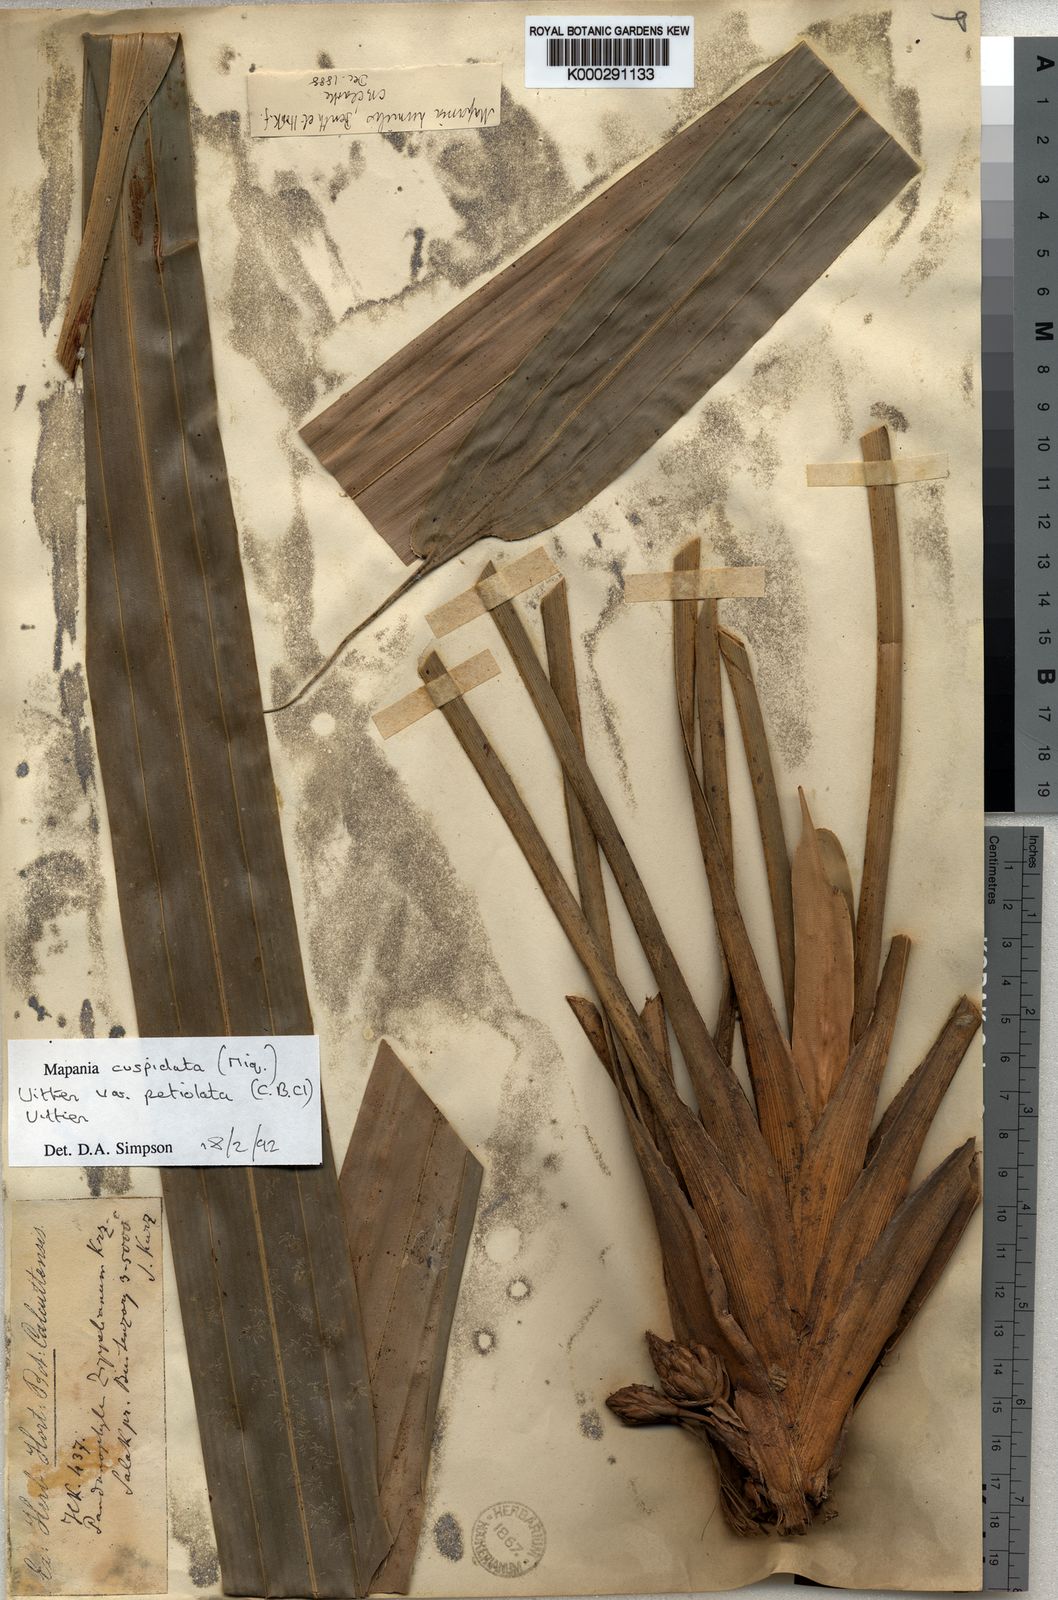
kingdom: Plantae
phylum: Tracheophyta
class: Liliopsida
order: Poales
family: Cyperaceae
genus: Mapania
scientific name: Mapania cuspidata
